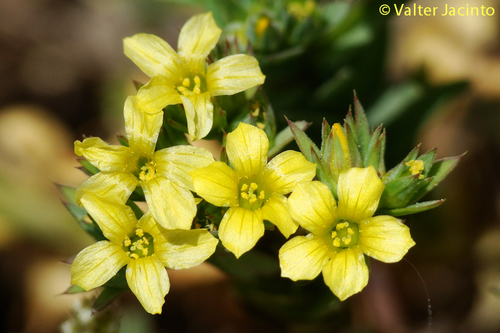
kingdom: Plantae
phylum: Tracheophyta
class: Magnoliopsida
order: Malpighiales
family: Linaceae
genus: Linum
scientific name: Linum strictum
